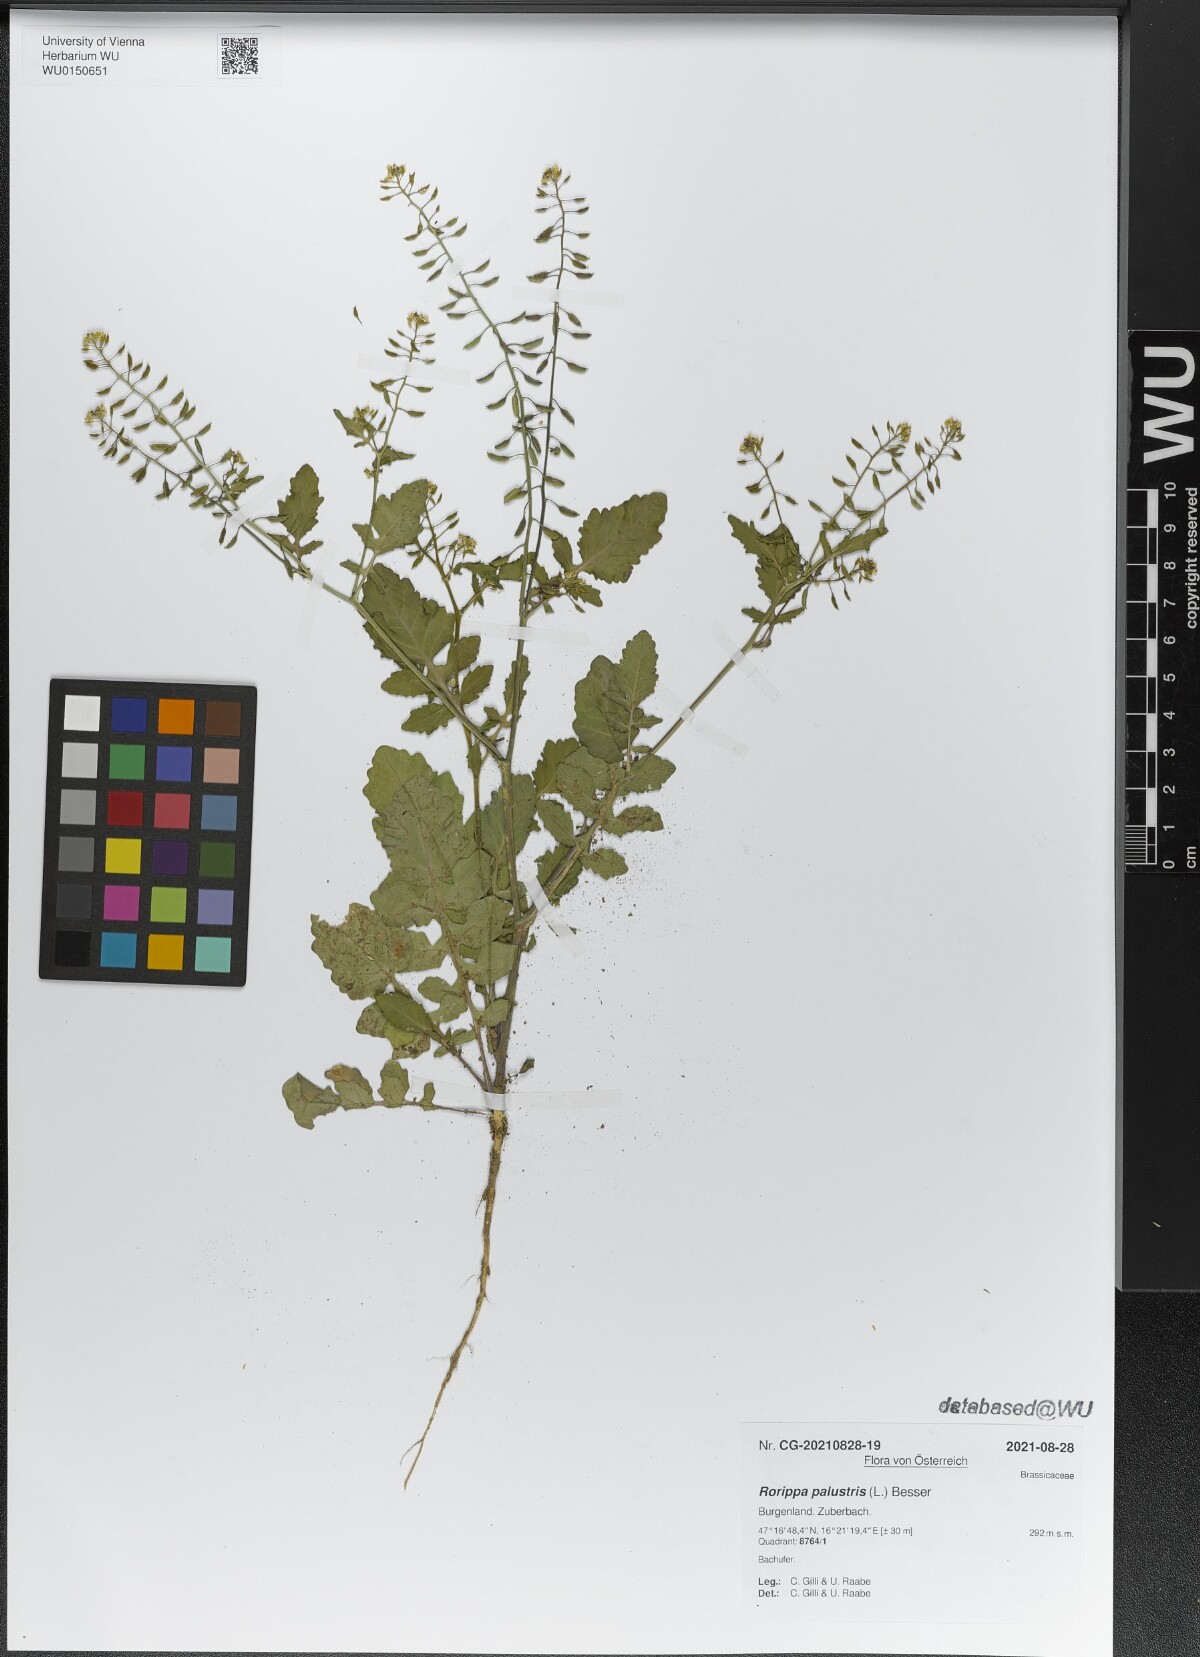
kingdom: Plantae
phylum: Tracheophyta
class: Magnoliopsida
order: Brassicales
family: Brassicaceae
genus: Rorippa
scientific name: Rorippa palustris
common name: Marsh yellow-cress
